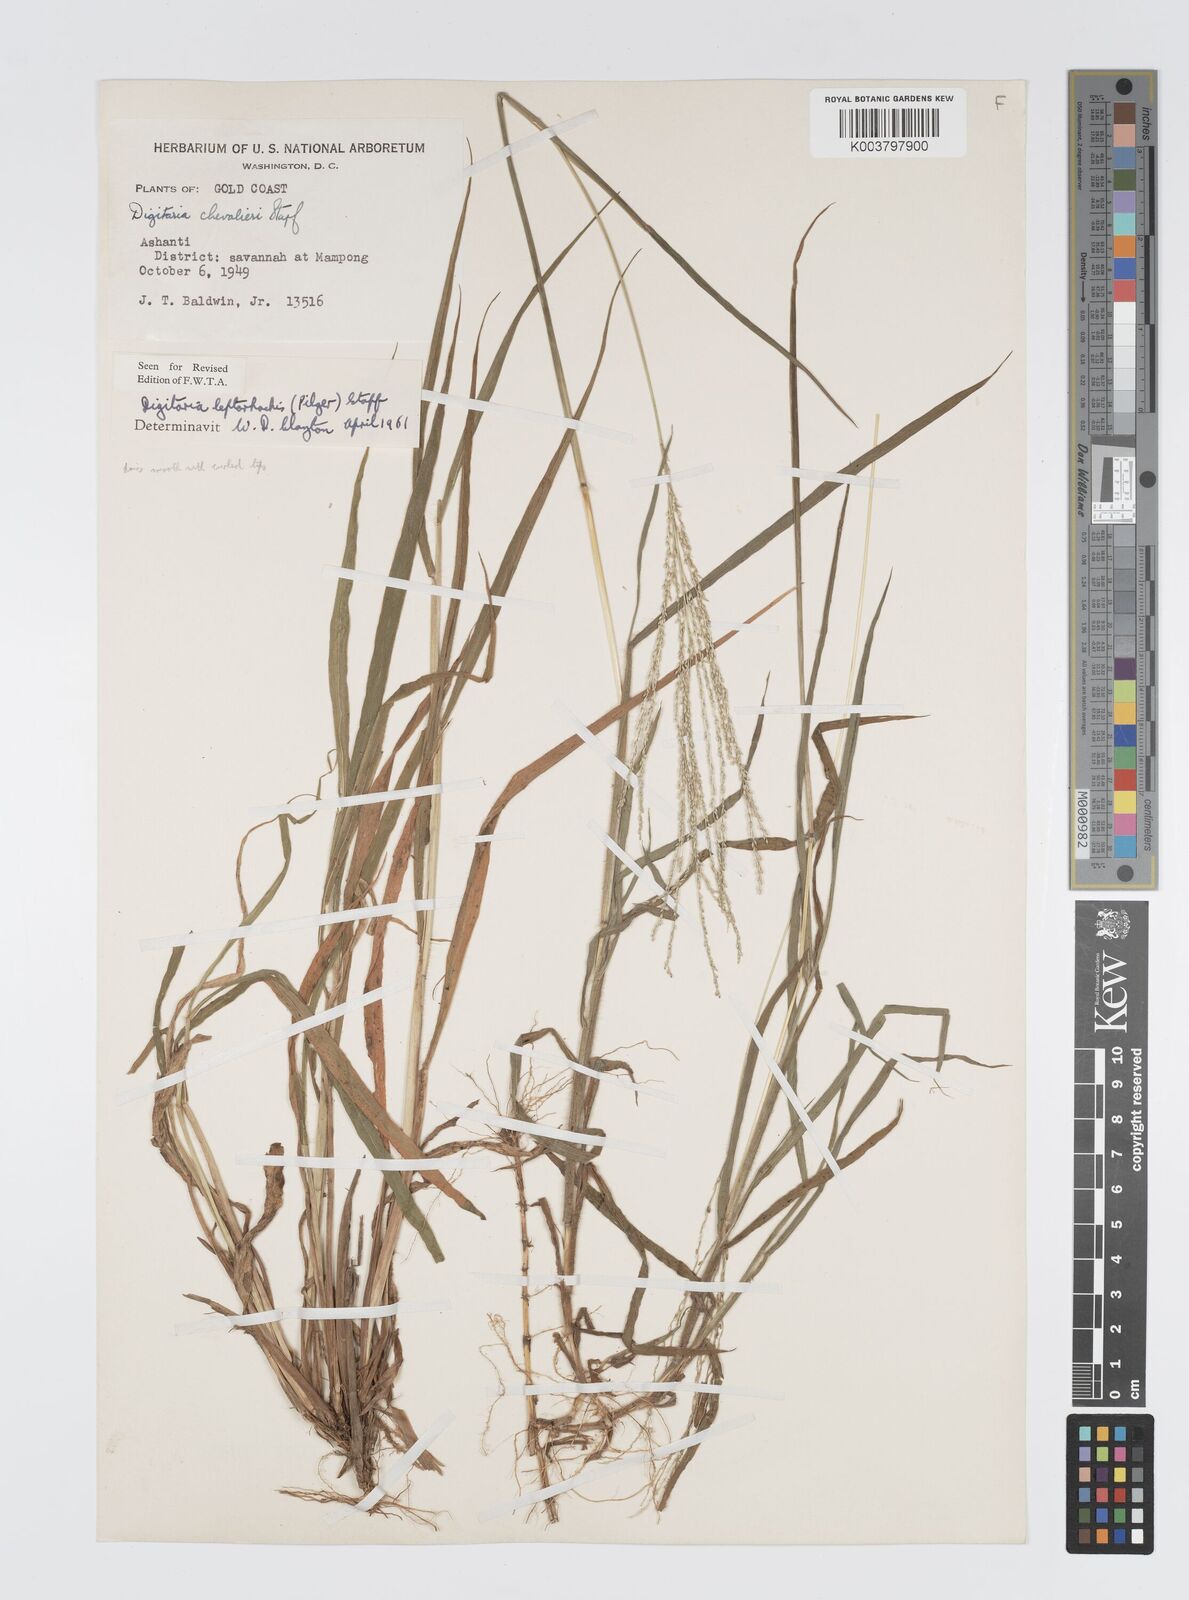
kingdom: Plantae
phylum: Tracheophyta
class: Liliopsida
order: Poales
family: Poaceae
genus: Digitaria
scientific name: Digitaria leptorhachis
